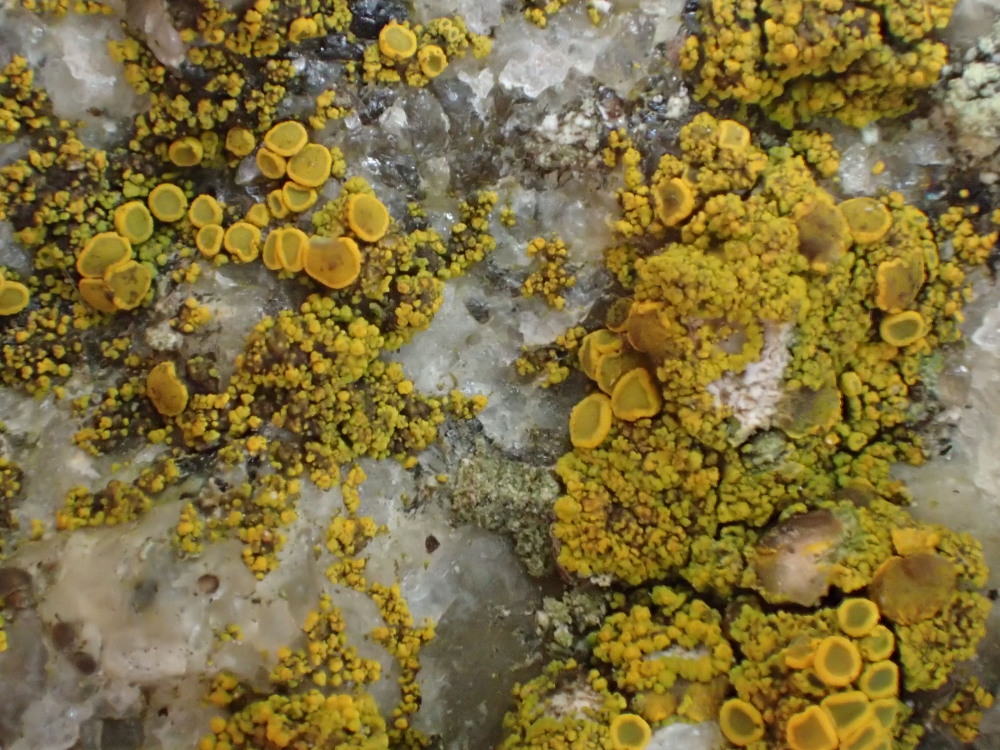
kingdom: Fungi
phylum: Ascomycota
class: Candelariomycetes
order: Candelariales
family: Candelariaceae
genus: Candelariella
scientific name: Candelariella vitellina
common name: almindelig æggeblommelav
